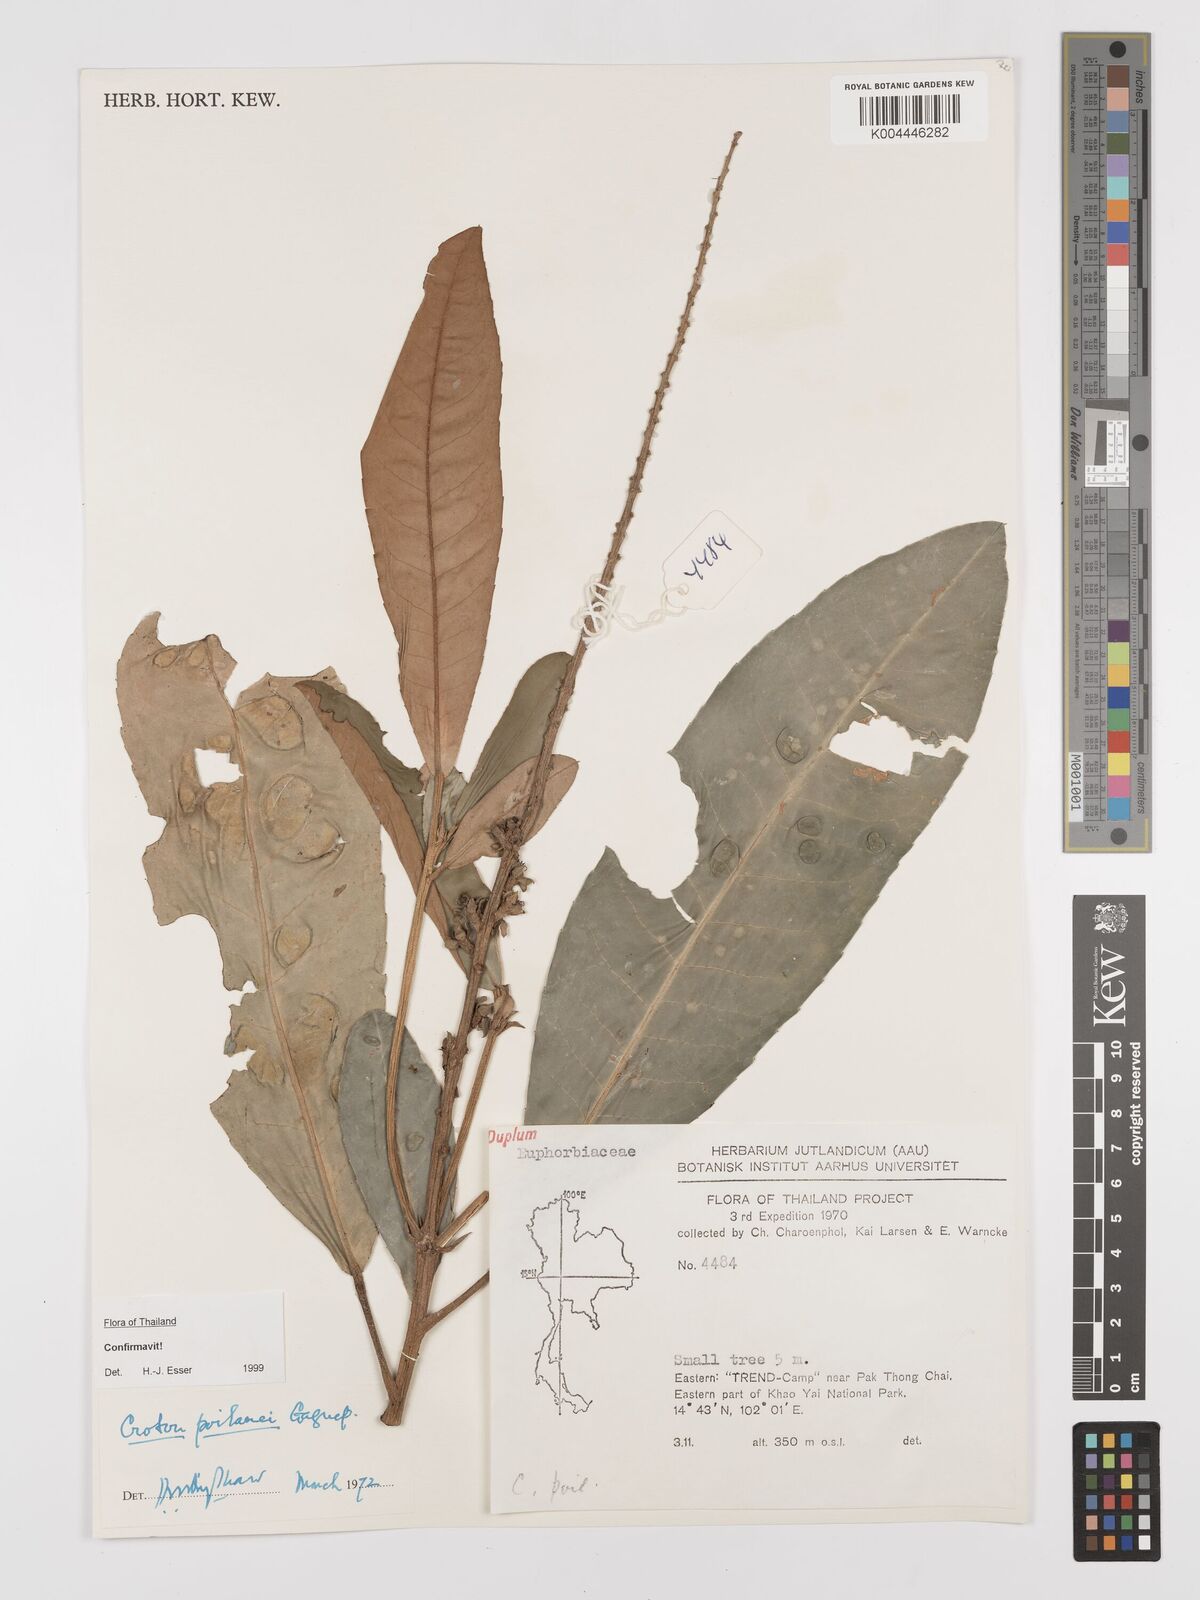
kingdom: Plantae
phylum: Tracheophyta
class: Magnoliopsida
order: Malpighiales
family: Euphorbiaceae
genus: Croton
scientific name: Croton poilanei
